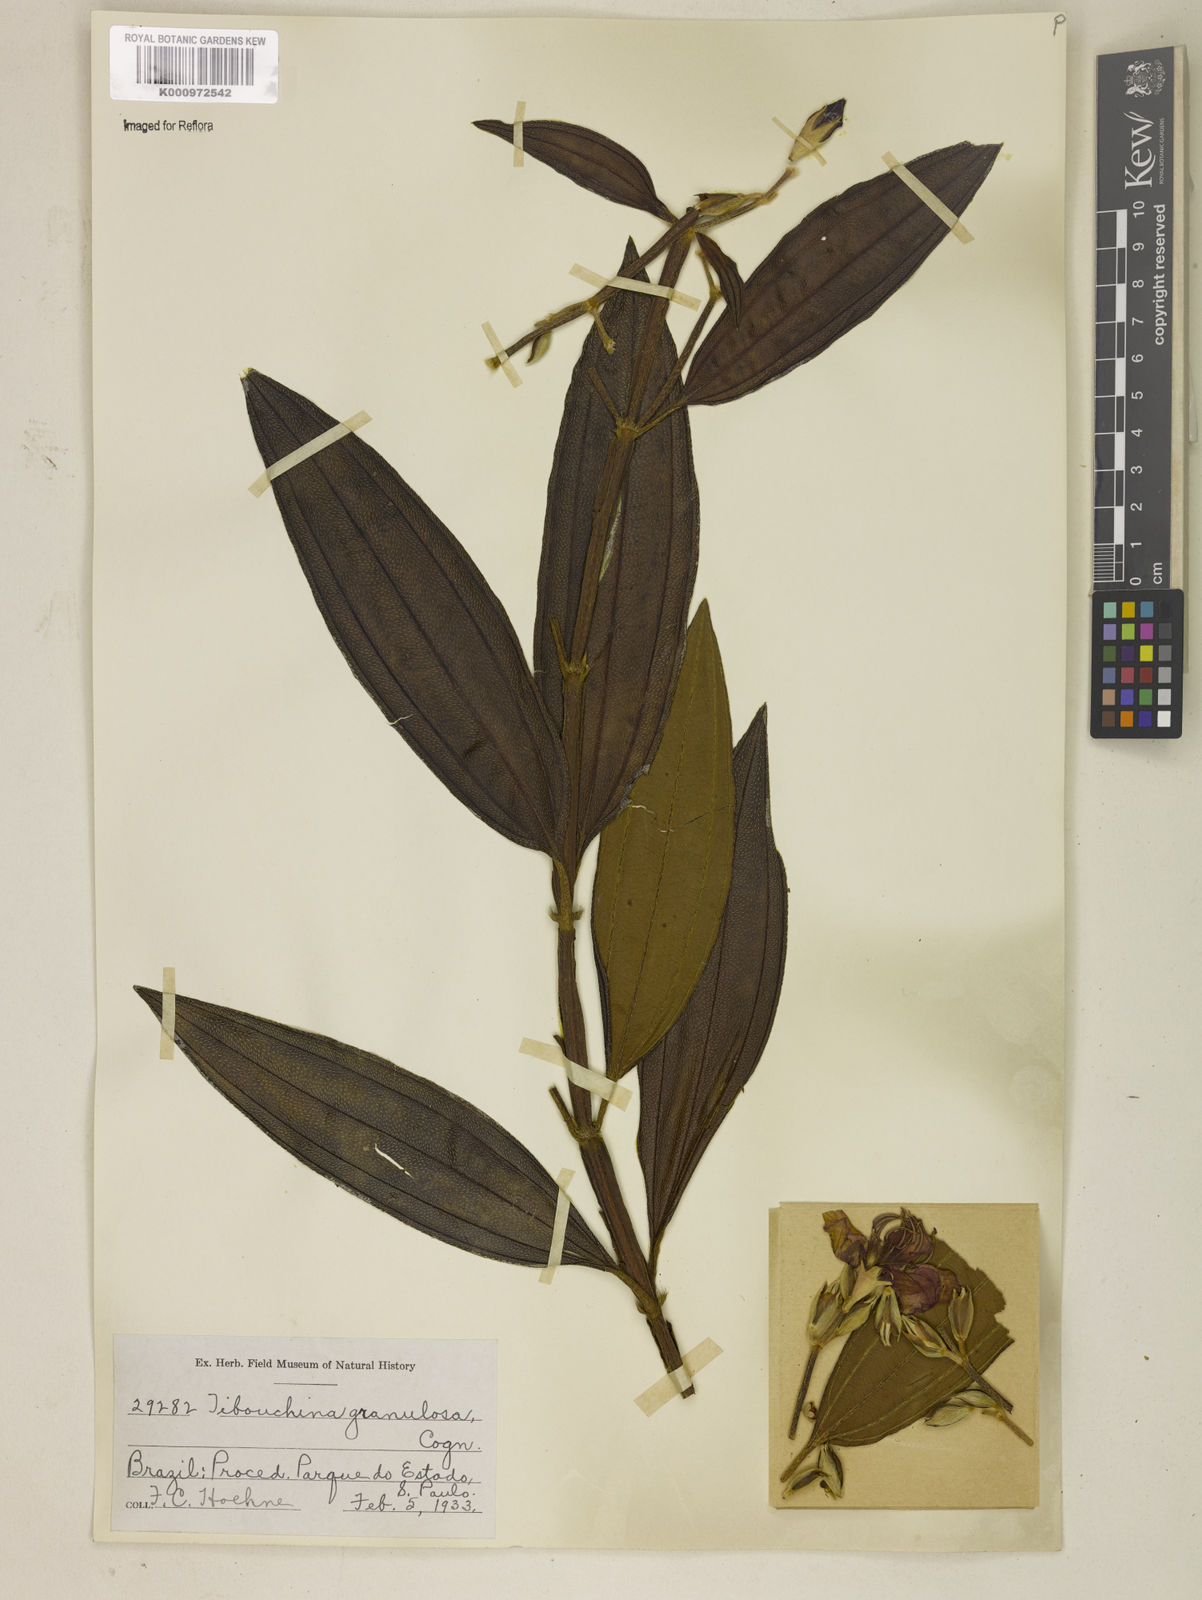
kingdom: Plantae
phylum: Tracheophyta
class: Magnoliopsida
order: Myrtales
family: Melastomataceae
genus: Pleroma
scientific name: Pleroma granulosum
